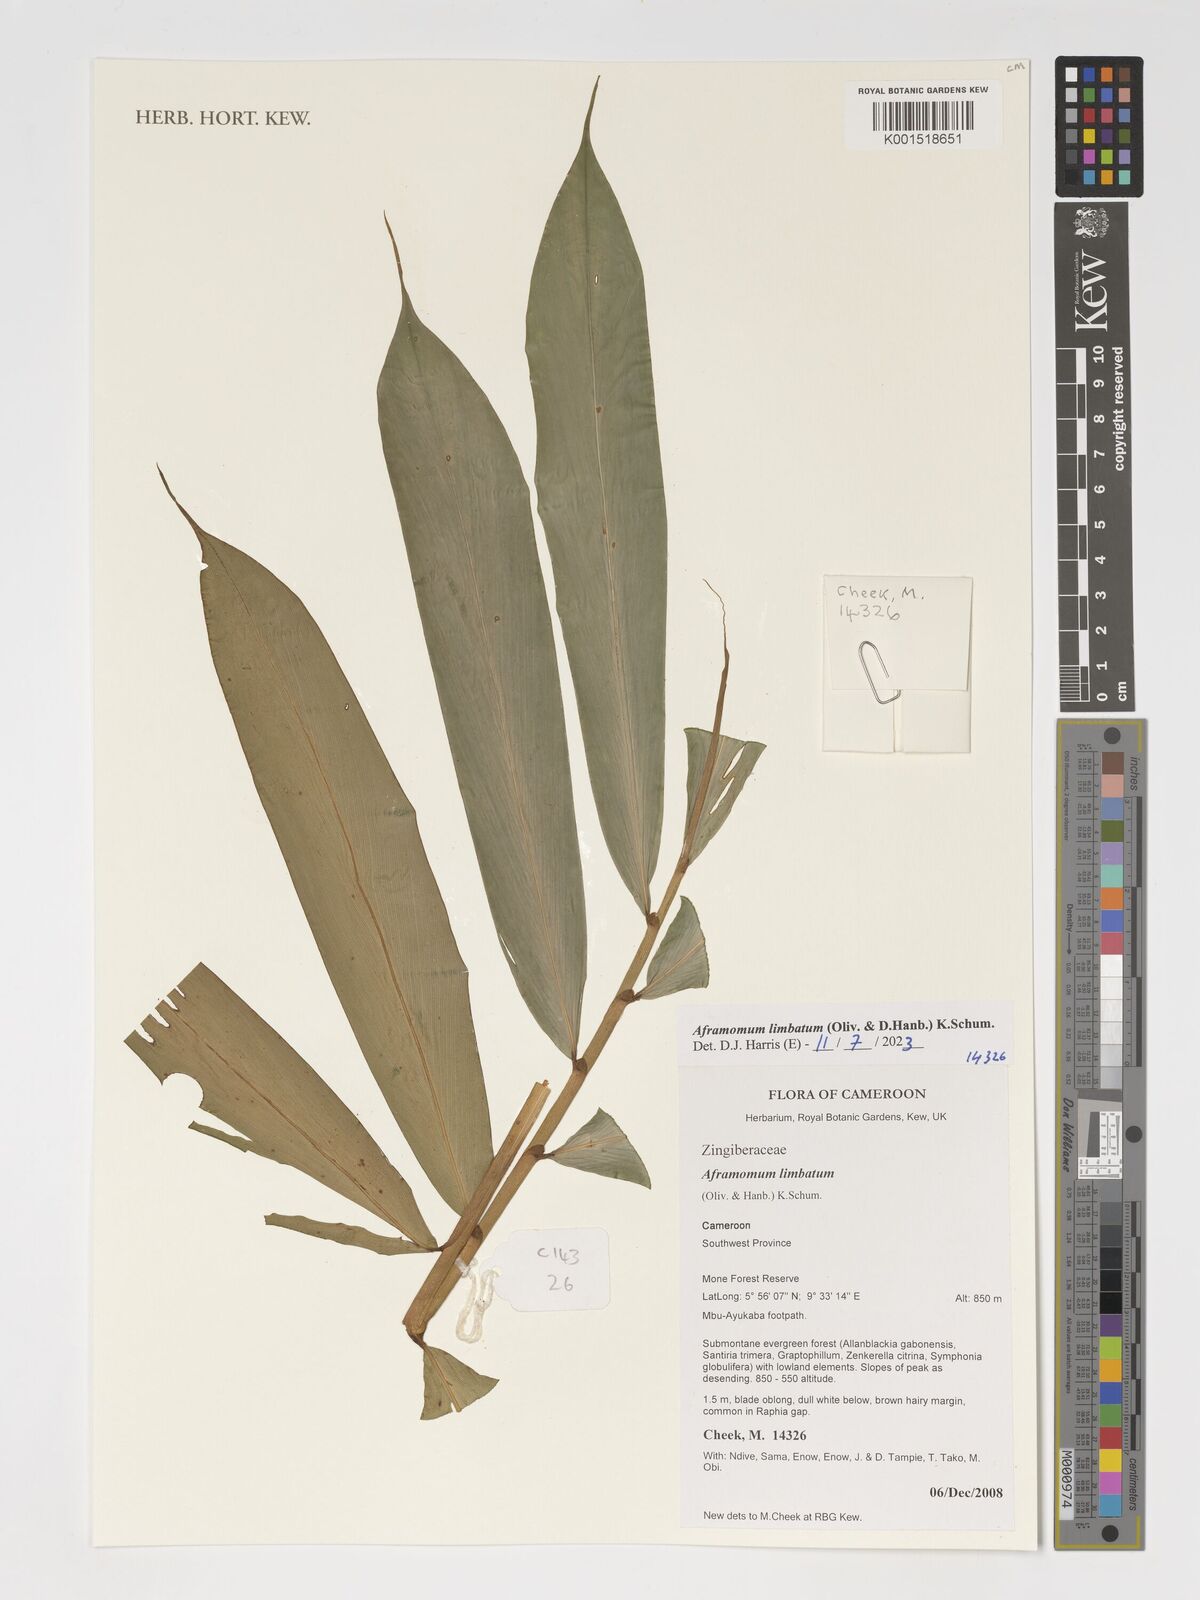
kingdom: Plantae
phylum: Tracheophyta
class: Liliopsida
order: Zingiberales
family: Zingiberaceae
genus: Aframomum
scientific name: Aframomum limbatum
